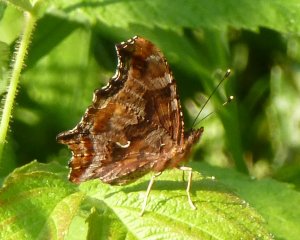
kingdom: Animalia
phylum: Arthropoda
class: Insecta
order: Lepidoptera
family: Nymphalidae
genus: Polygonia
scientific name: Polygonia comma
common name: Eastern Comma
